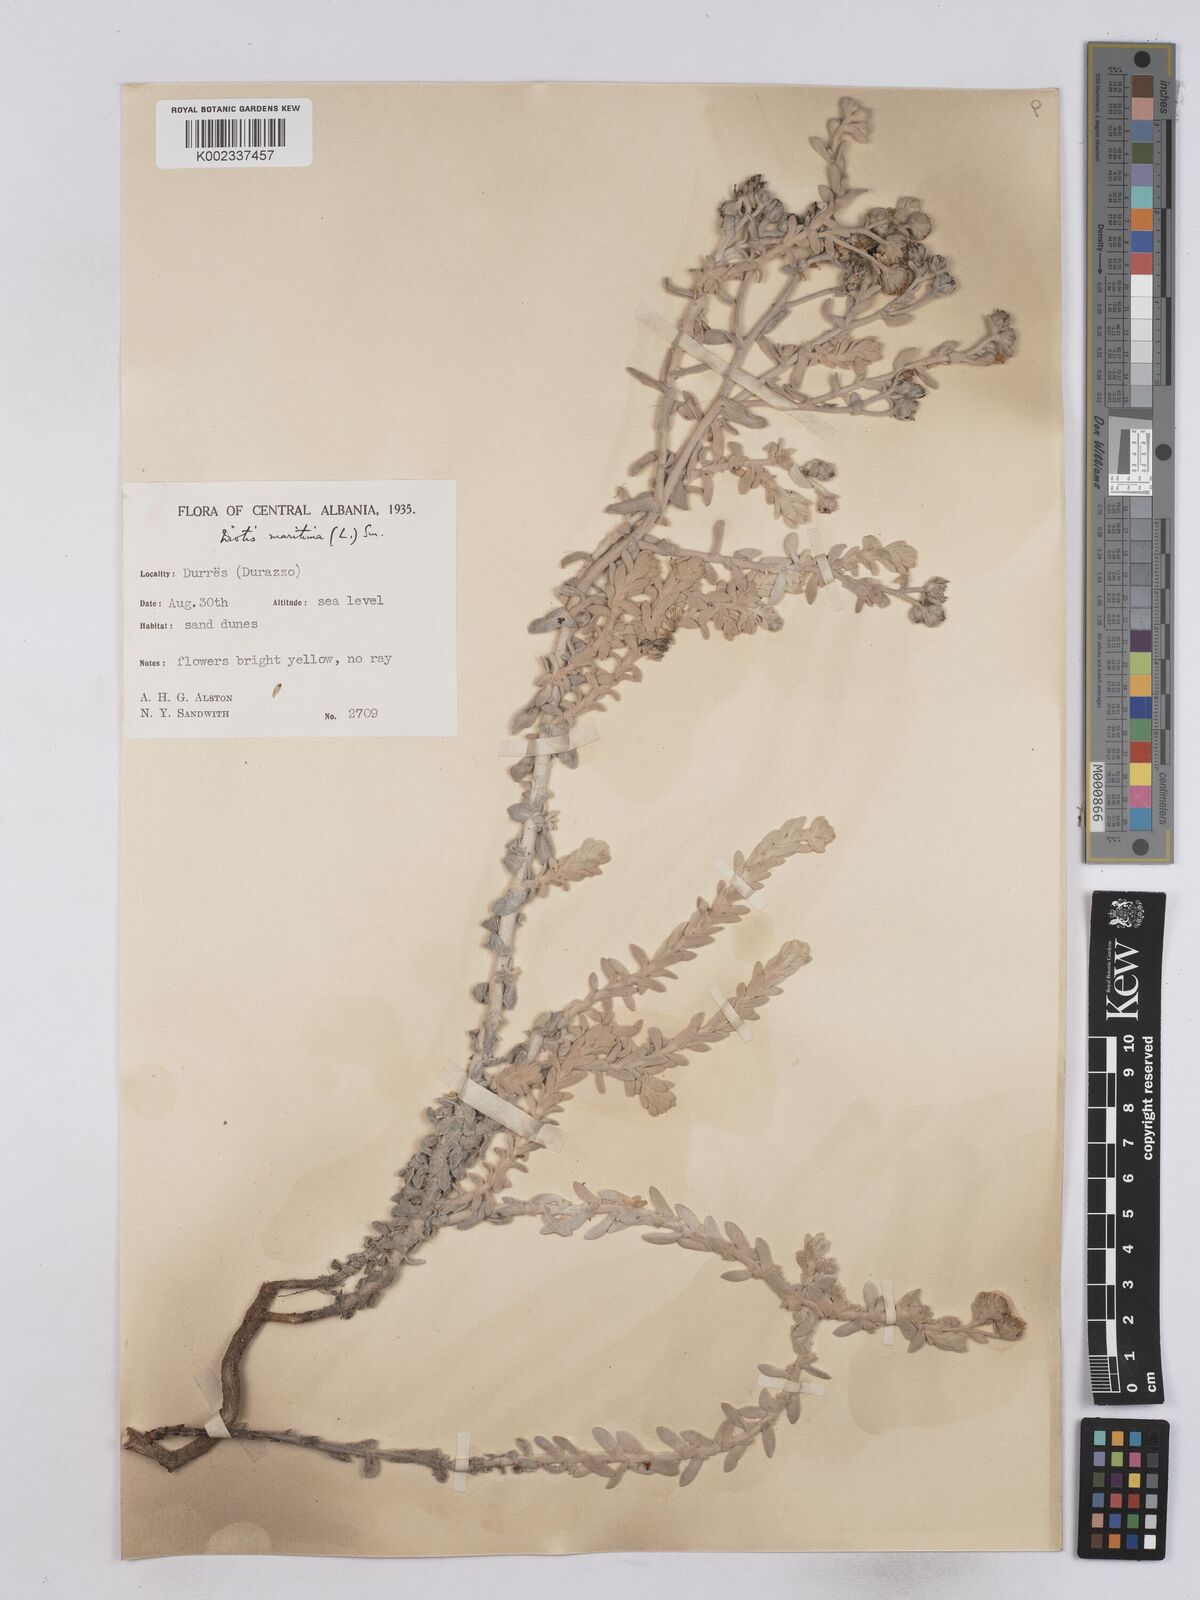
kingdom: Plantae
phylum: Tracheophyta
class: Magnoliopsida
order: Asterales
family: Asteraceae
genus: Achillea
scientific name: Achillea maritima
